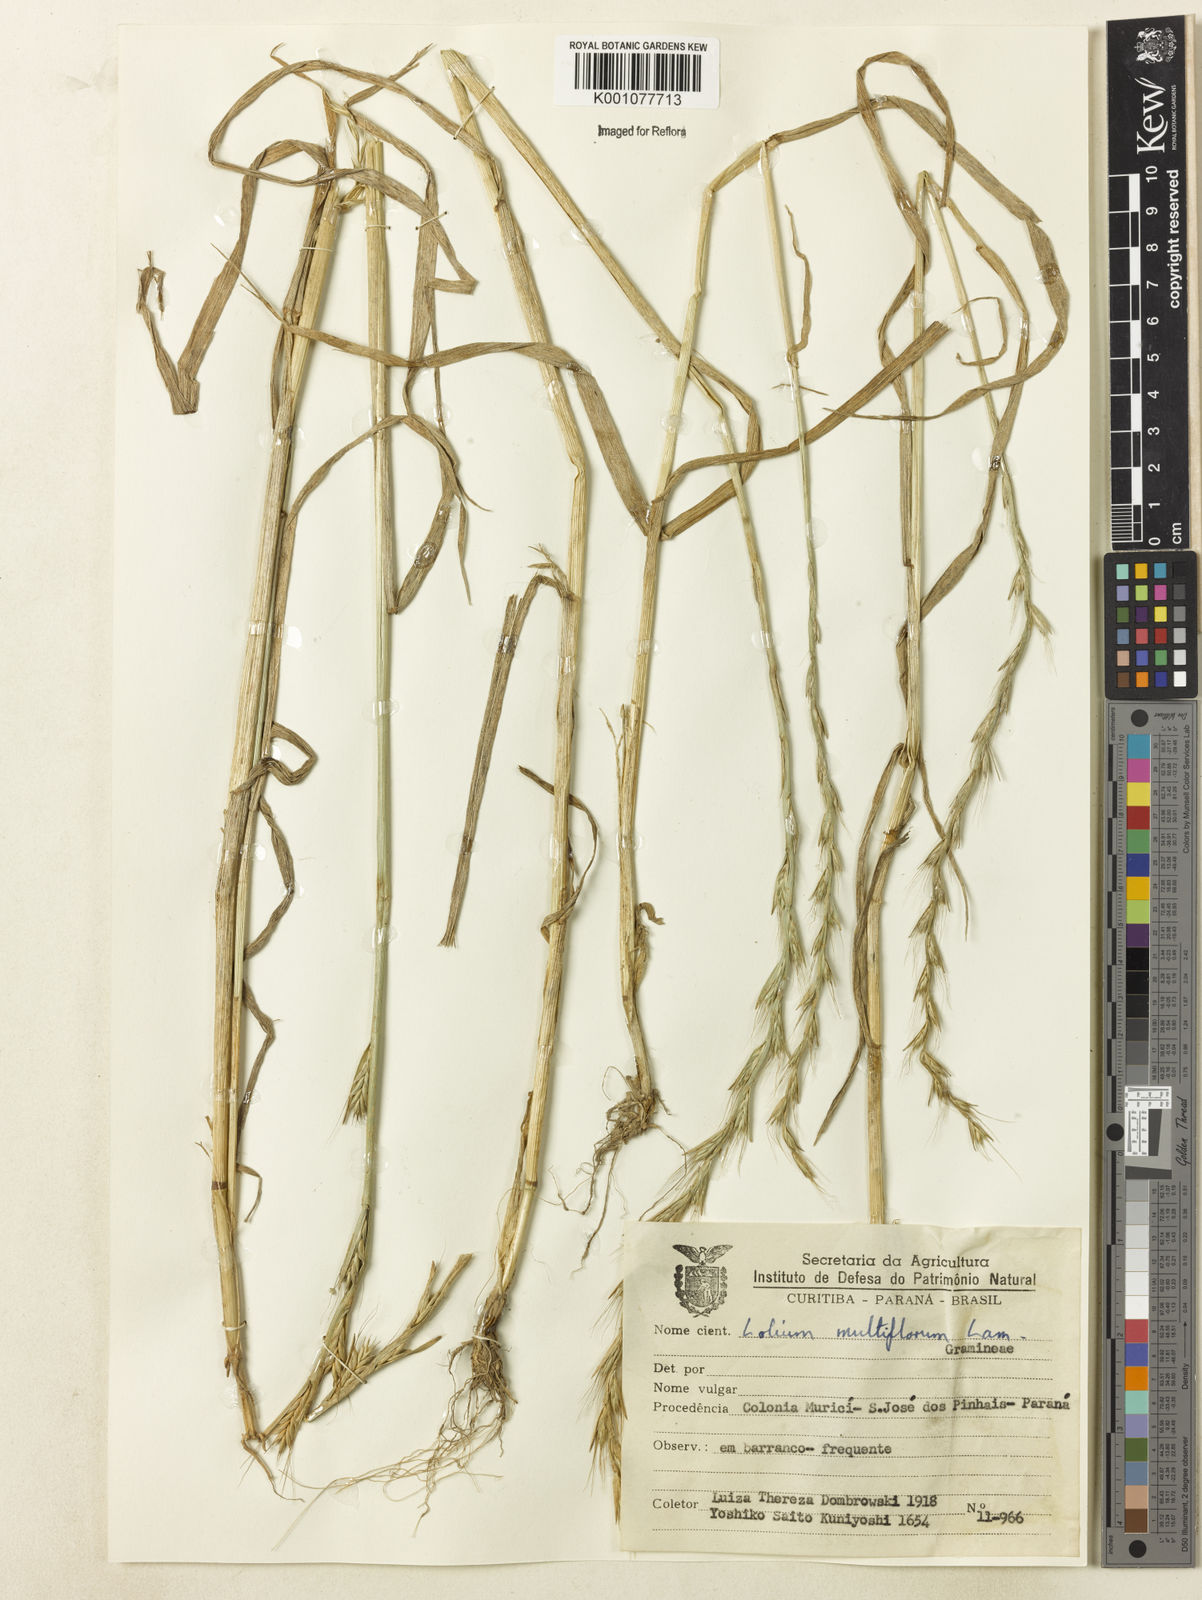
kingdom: Plantae
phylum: Tracheophyta
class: Liliopsida
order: Poales
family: Poaceae
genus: Lolium
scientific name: Lolium multiflorum
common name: Annual ryegrass
